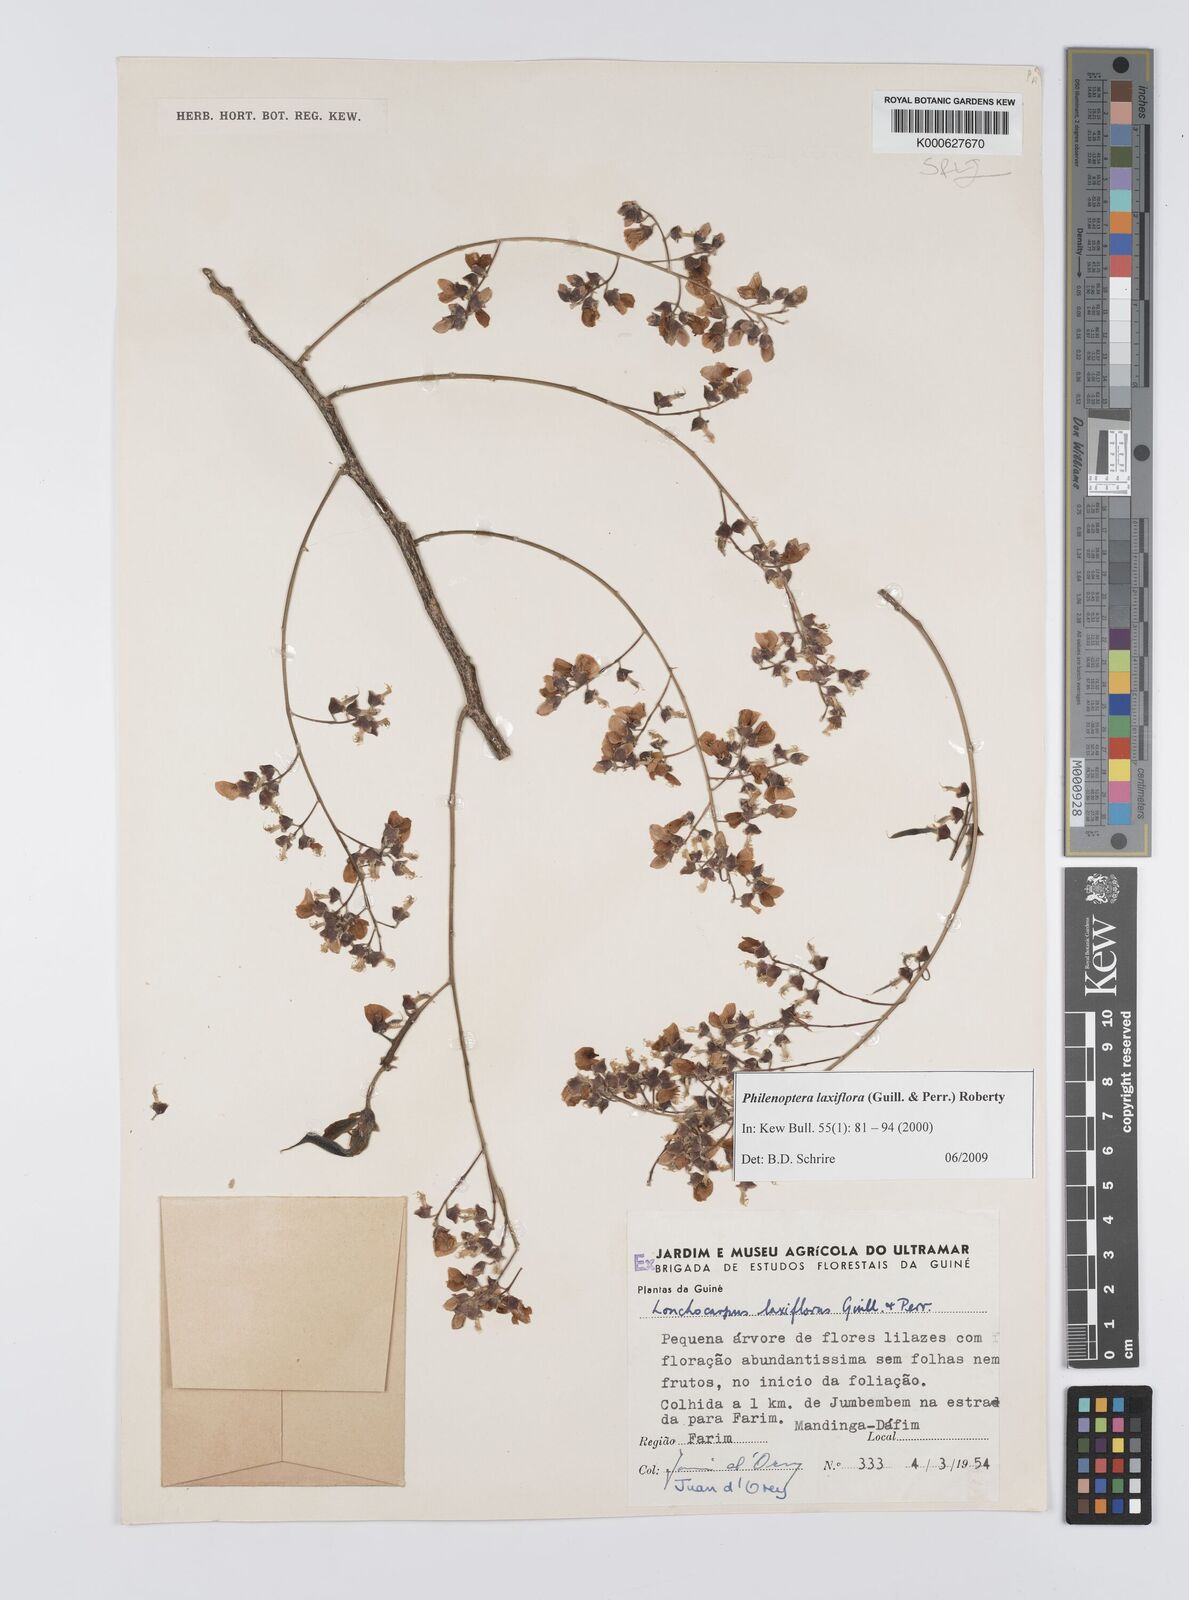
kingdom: Plantae
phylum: Tracheophyta
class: Magnoliopsida
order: Fabales
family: Fabaceae
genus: Philenoptera
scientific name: Philenoptera laxiflora
